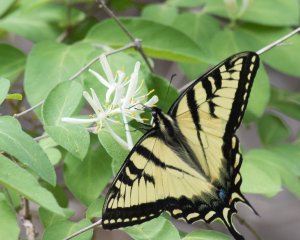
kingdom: Animalia
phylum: Arthropoda
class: Insecta
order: Lepidoptera
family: Papilionidae
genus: Pterourus
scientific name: Pterourus canadensis
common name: Canadian Tiger Swallowtail
